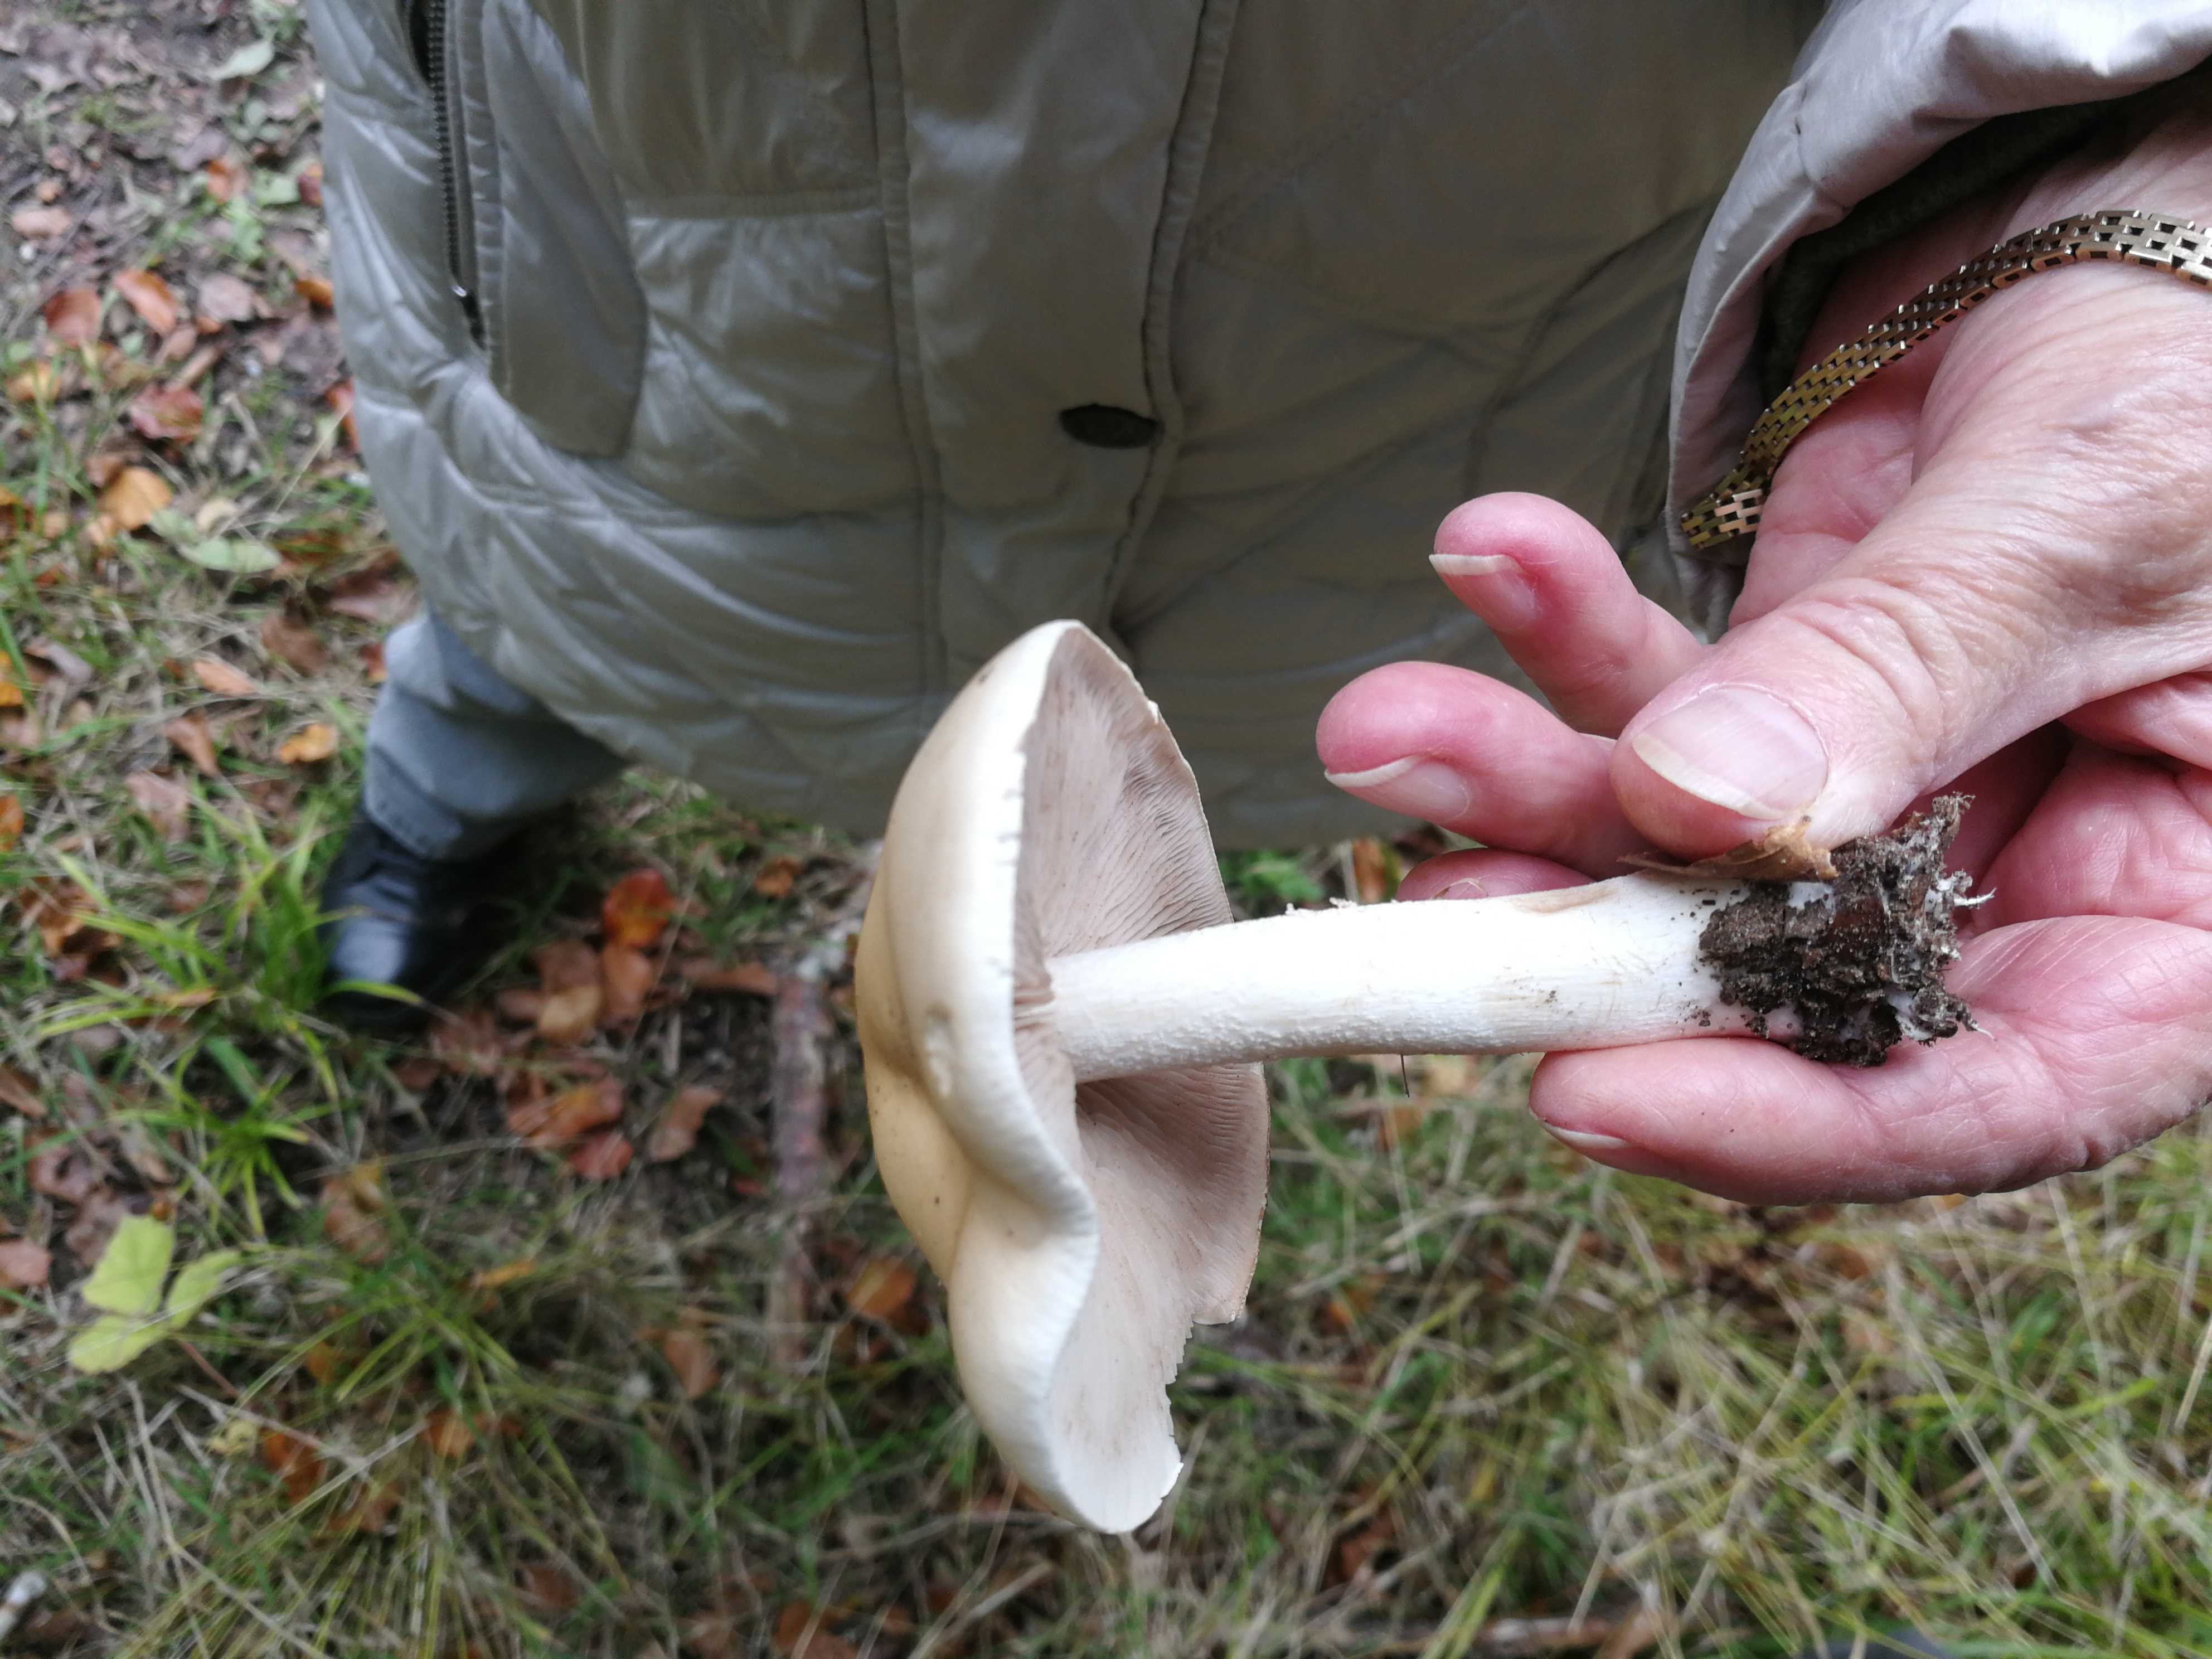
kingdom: Fungi
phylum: Basidiomycota
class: Agaricomycetes
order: Agaricales
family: Hymenogastraceae
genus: Hebeloma
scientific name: Hebeloma
